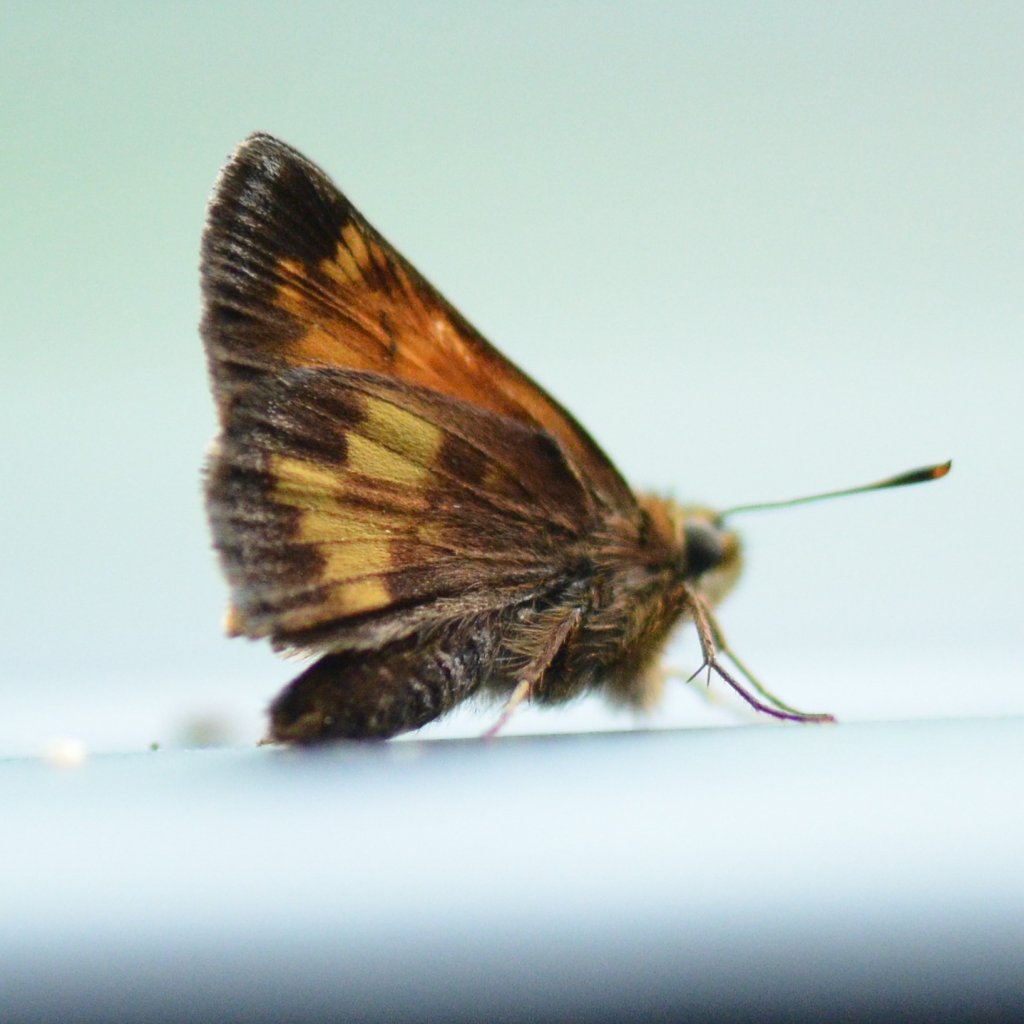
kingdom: Animalia
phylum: Arthropoda
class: Insecta
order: Lepidoptera
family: Hesperiidae
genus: Lon
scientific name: Lon hobomok
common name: Hobomok Skipper
